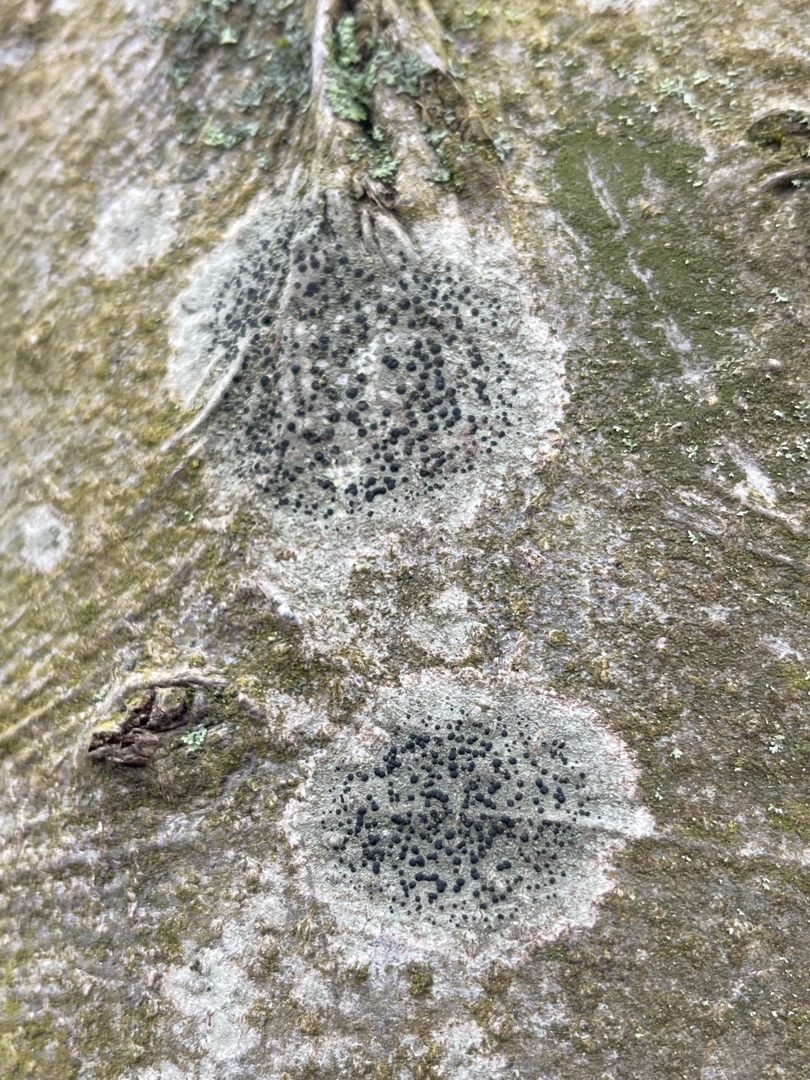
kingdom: Fungi
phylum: Ascomycota
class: Lecanoromycetes
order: Lecanorales
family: Lecanoraceae
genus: Lecidella
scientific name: Lecidella elaeochroma
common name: Grågrøn skivelav
